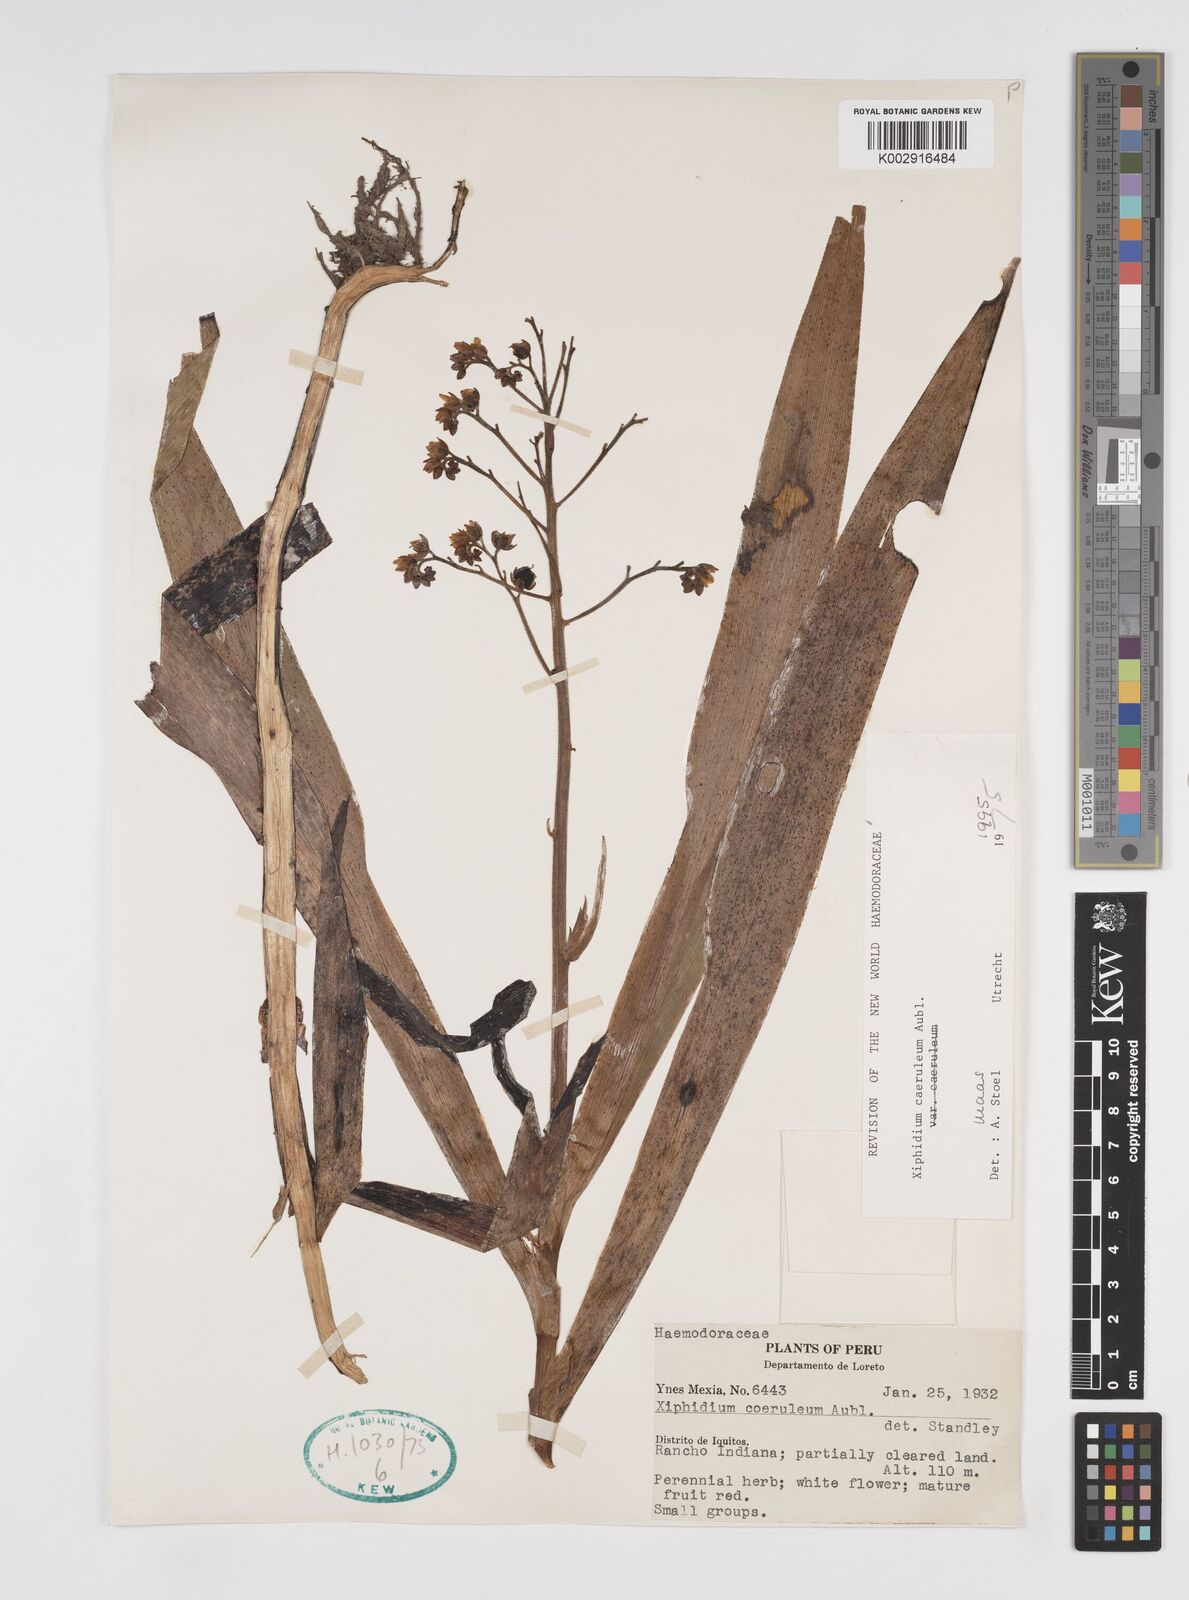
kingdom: Plantae
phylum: Tracheophyta
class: Liliopsida
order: Commelinales
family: Haemodoraceae
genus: Xiphidium
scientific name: Xiphidium caeruleum
